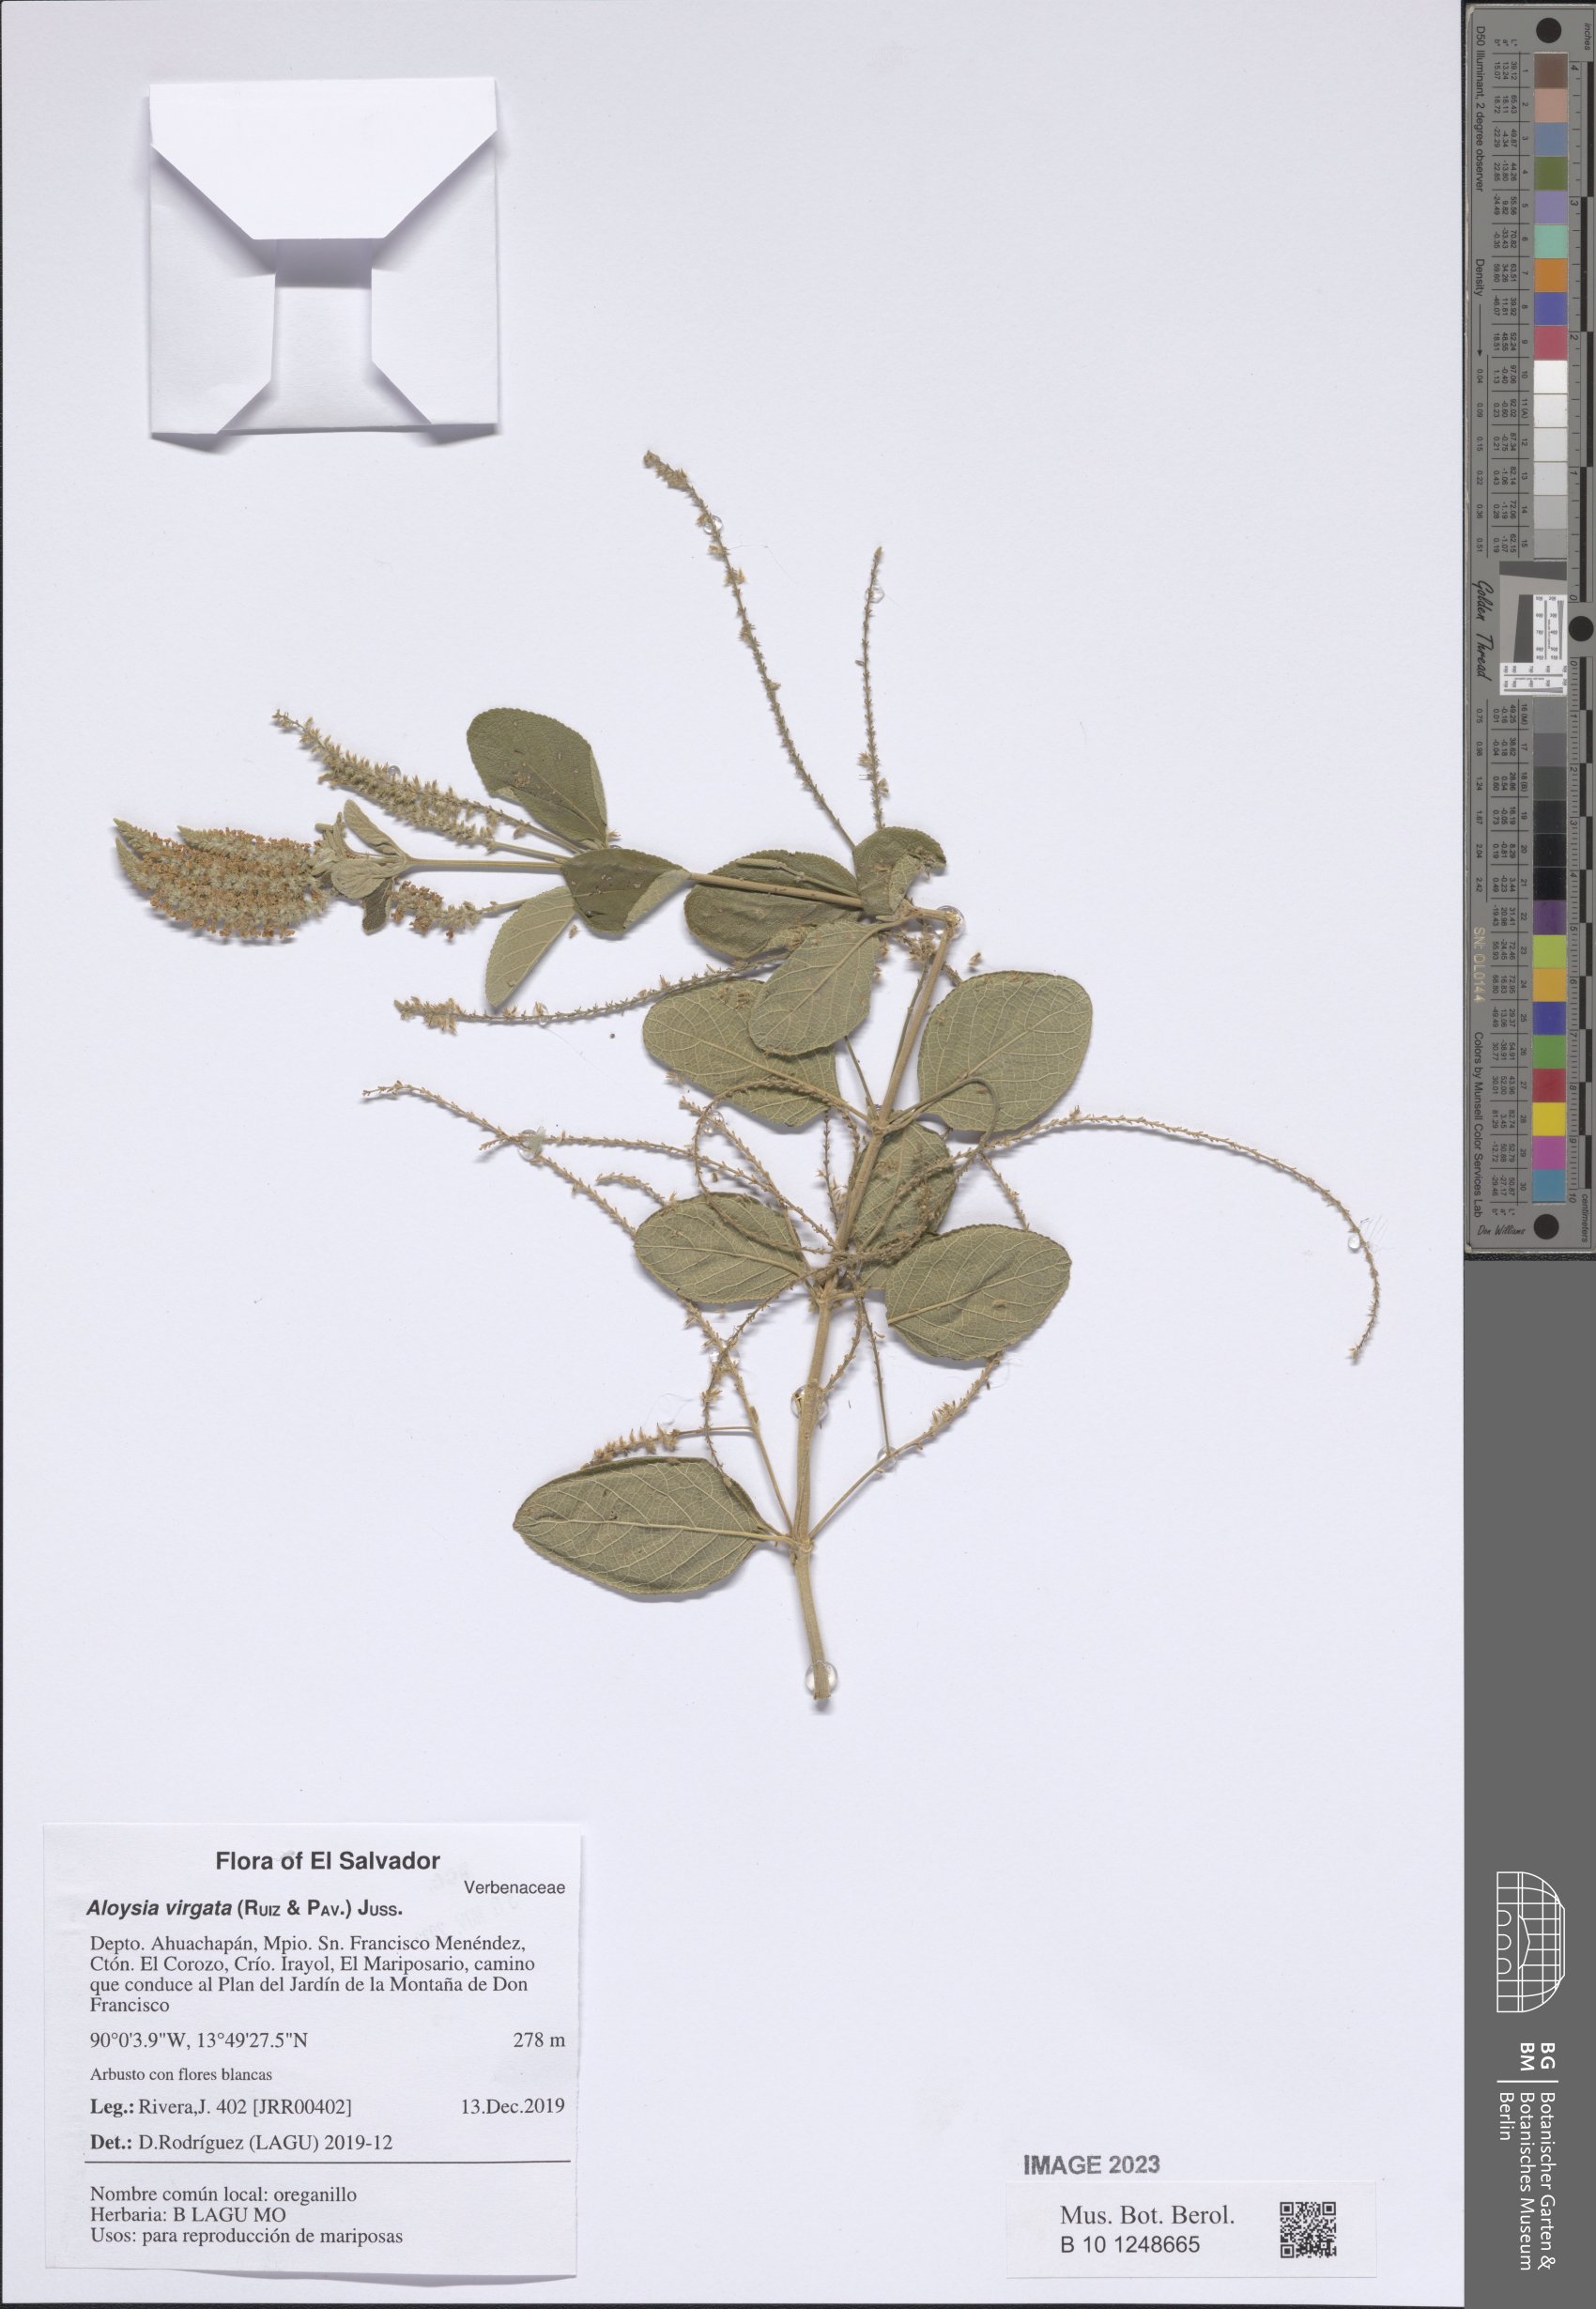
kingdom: Plantae
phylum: Tracheophyta
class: Magnoliopsida
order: Lamiales
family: Verbenaceae
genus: Aloysia
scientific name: Aloysia virgata
